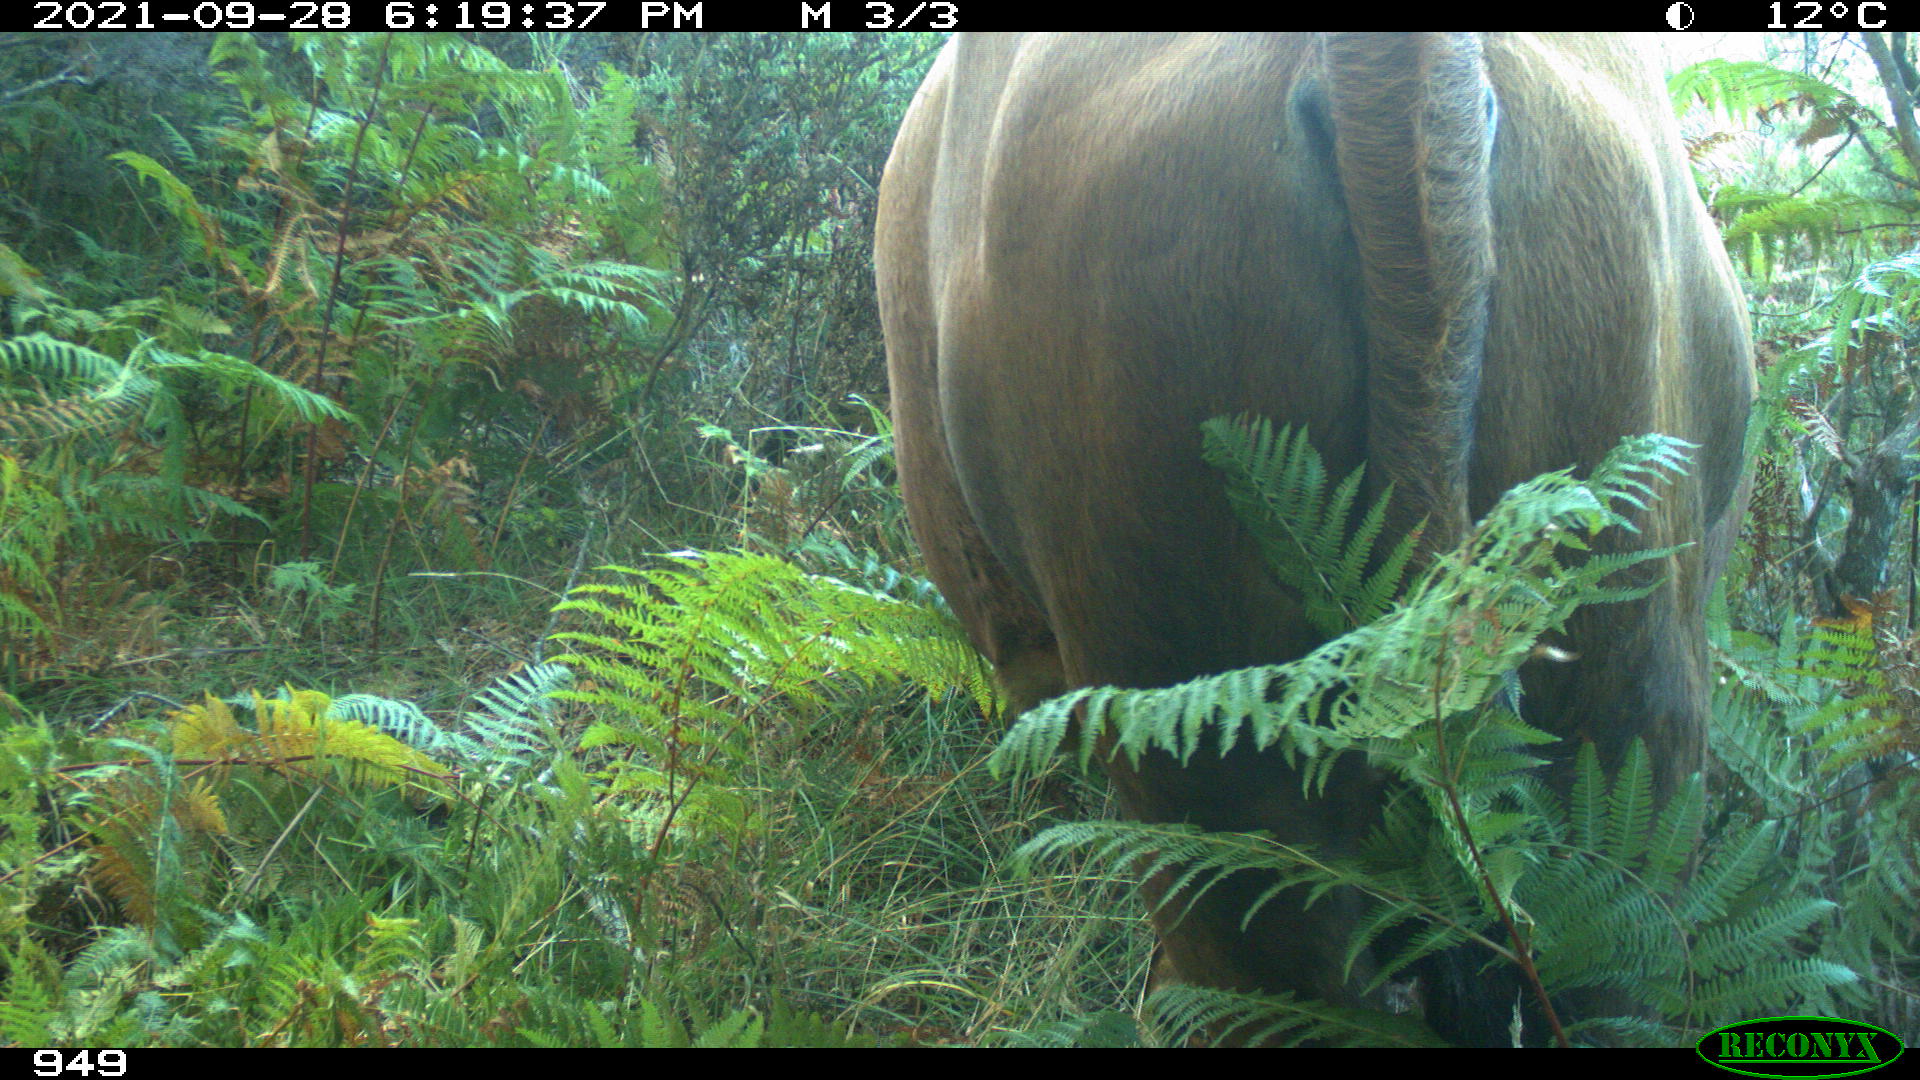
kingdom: Animalia
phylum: Chordata
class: Mammalia
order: Artiodactyla
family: Bovidae
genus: Bos
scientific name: Bos taurus
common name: Domesticated cattle
